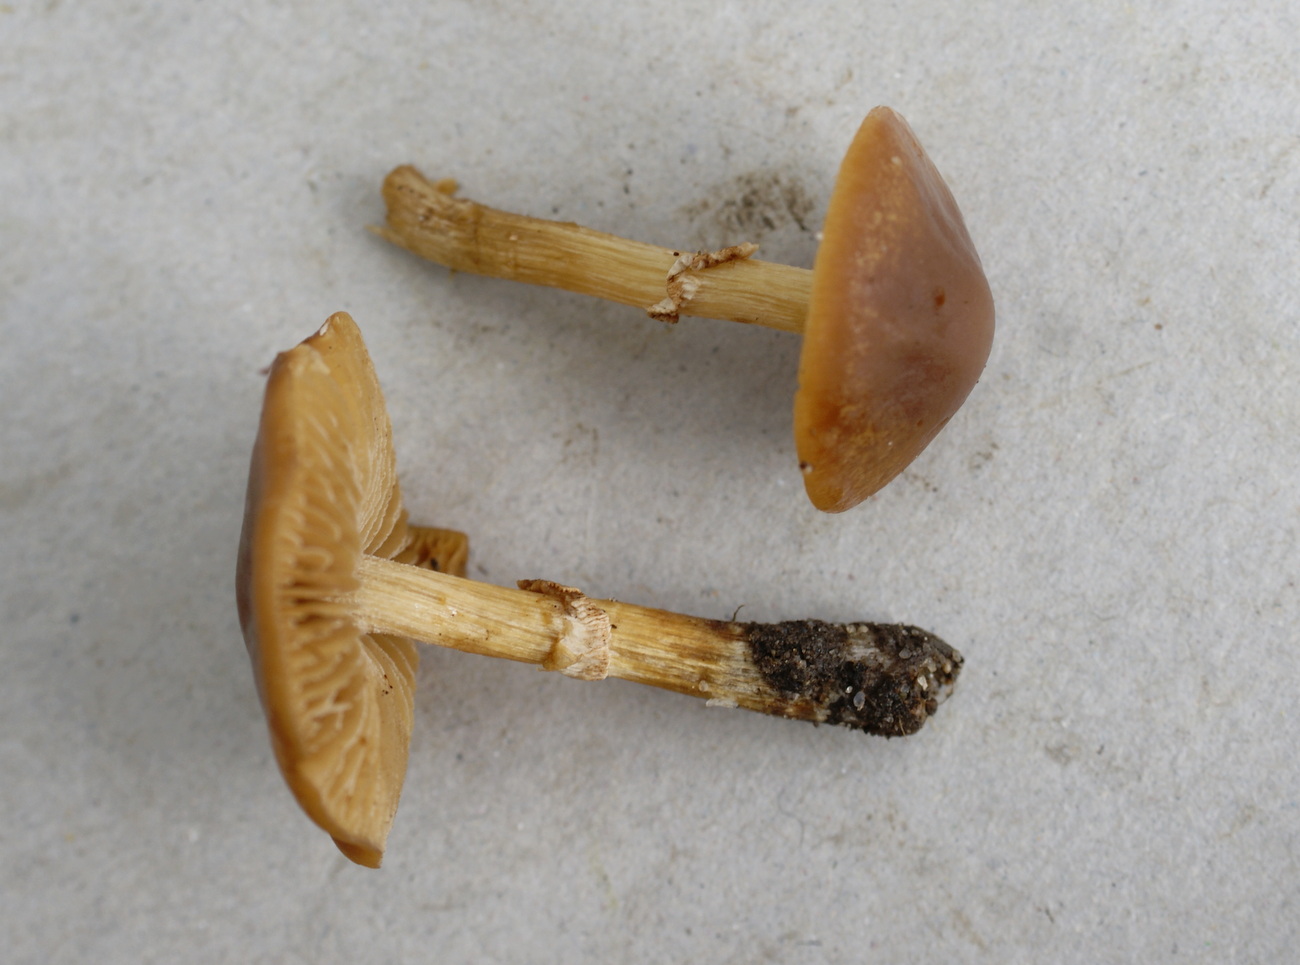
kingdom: Fungi
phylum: Basidiomycota
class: Agaricomycetes
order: Agaricales
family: Bolbitiaceae
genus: Conocybe
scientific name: Conocybe aporos
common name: tidlig dansehat
